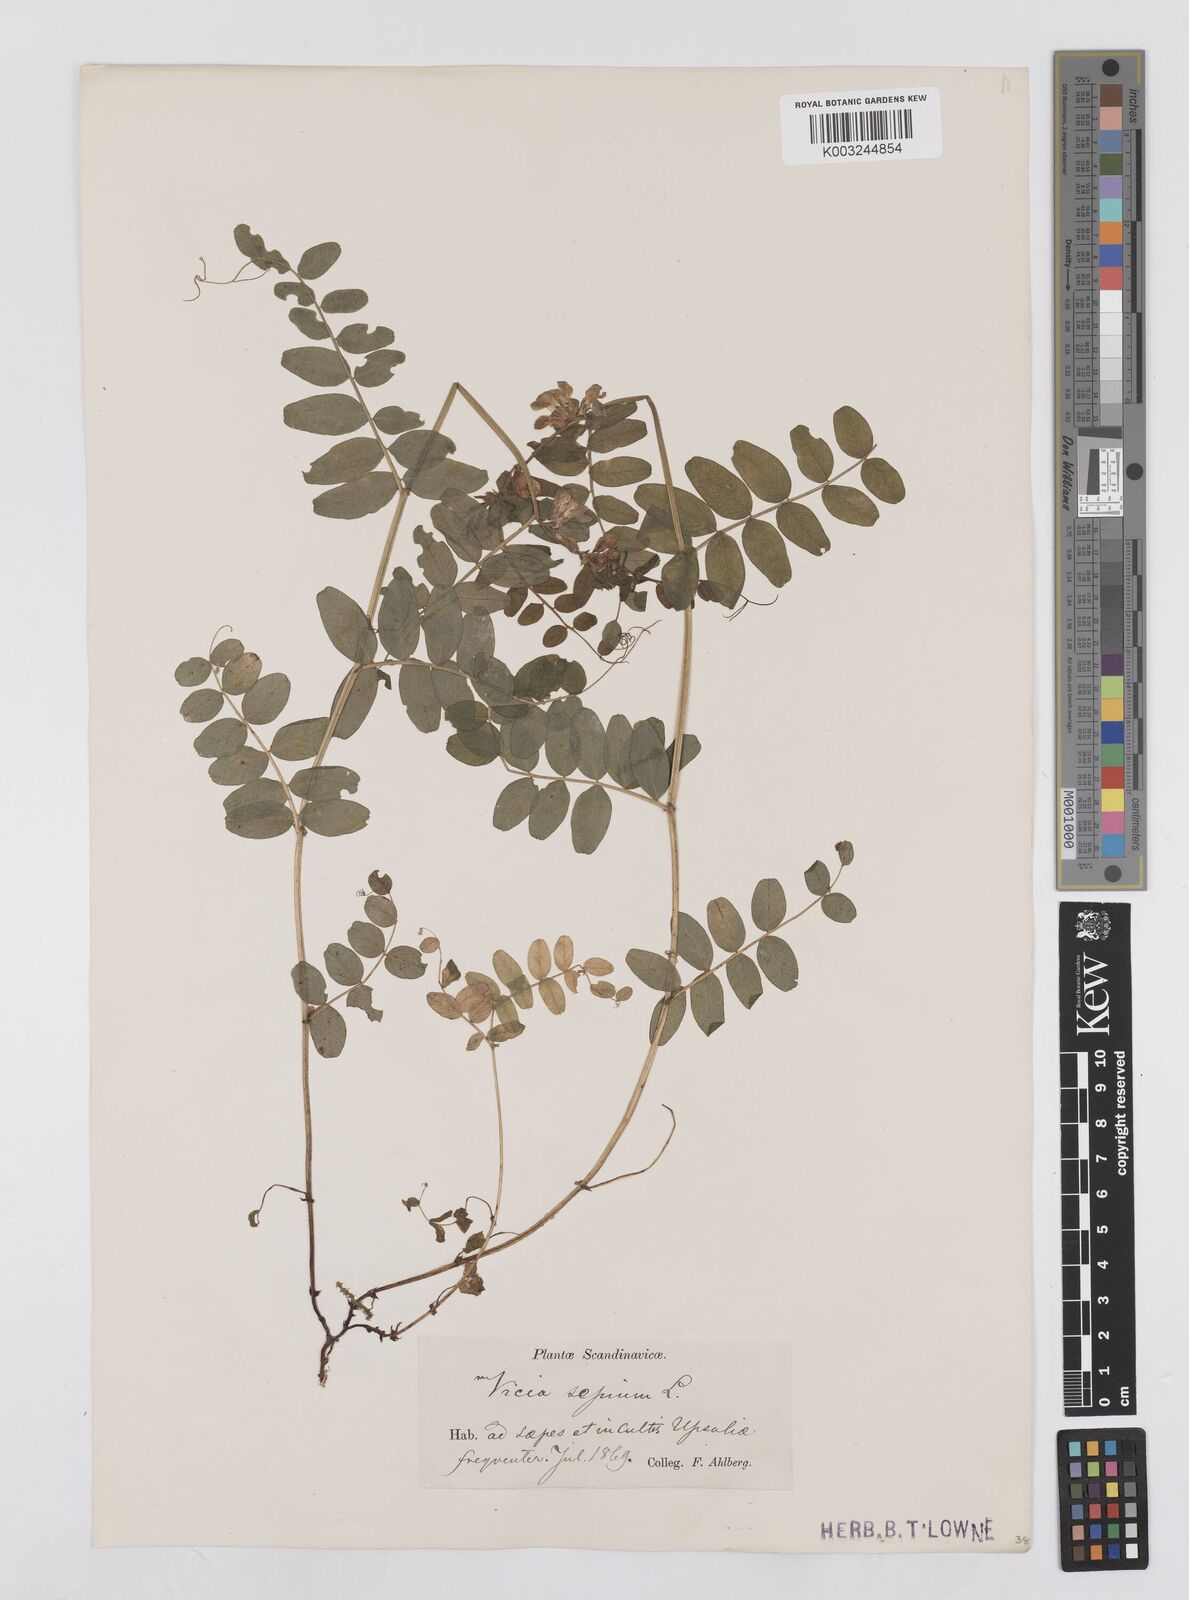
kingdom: Plantae
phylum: Tracheophyta
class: Magnoliopsida
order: Fabales
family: Fabaceae
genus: Vicia
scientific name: Vicia sepium
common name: Bush vetch
